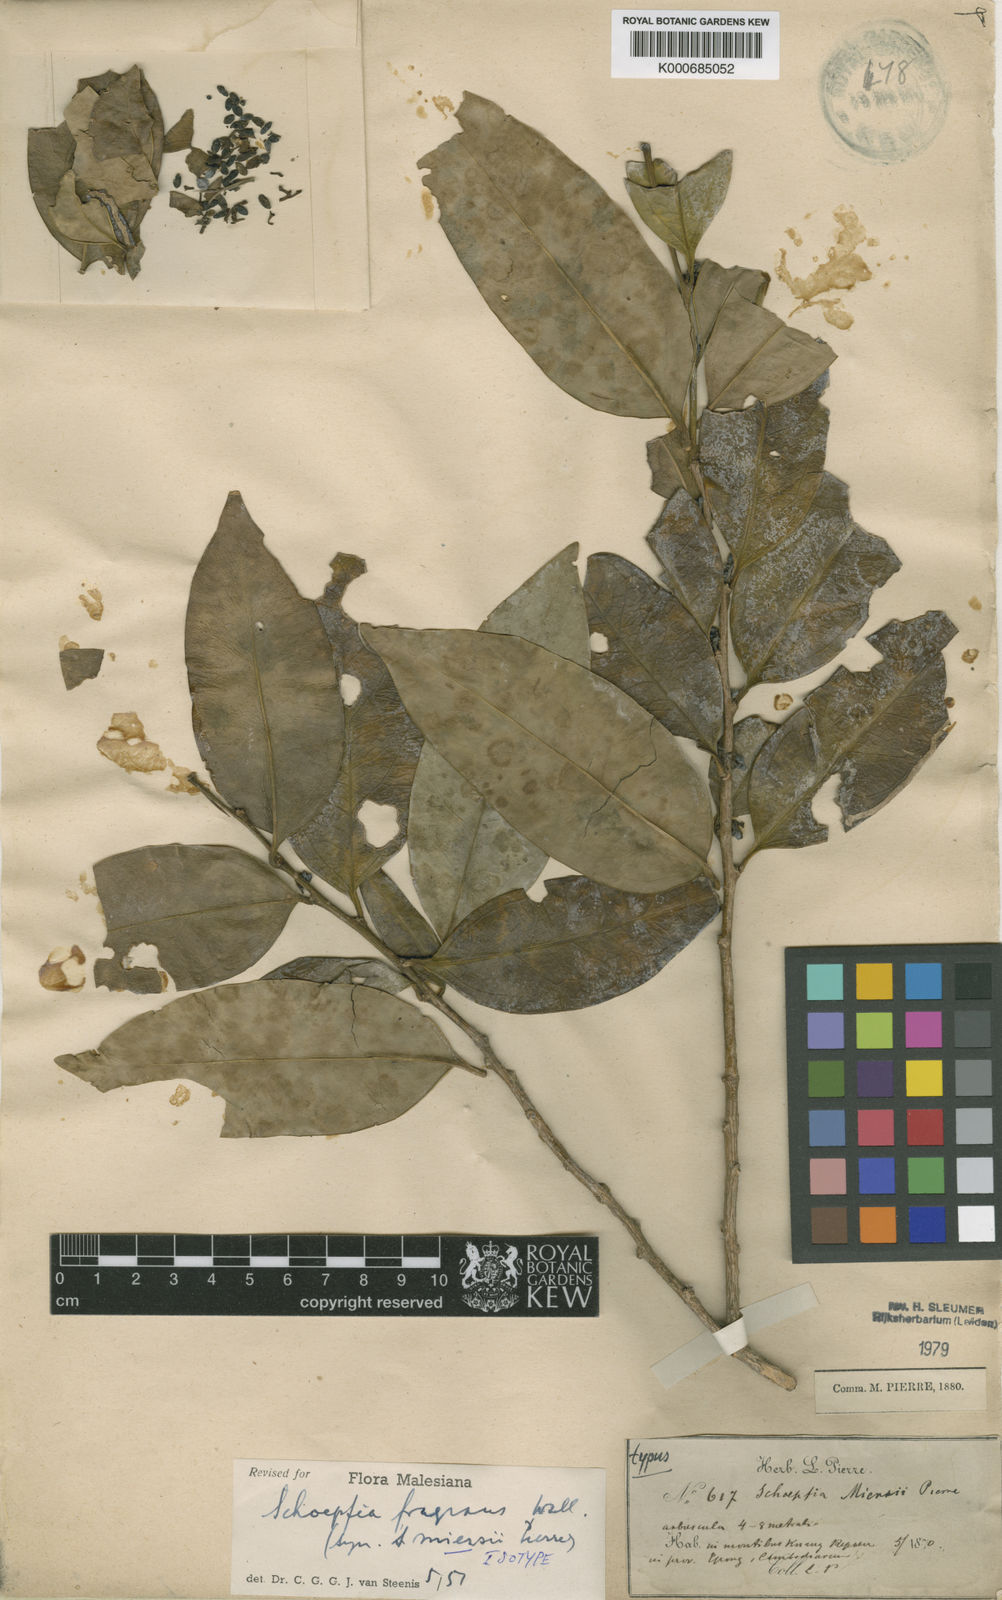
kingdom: Plantae
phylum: Tracheophyta
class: Magnoliopsida
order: Santalales
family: Schoepfiaceae
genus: Schoepfia
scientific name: Schoepfia fragrans
